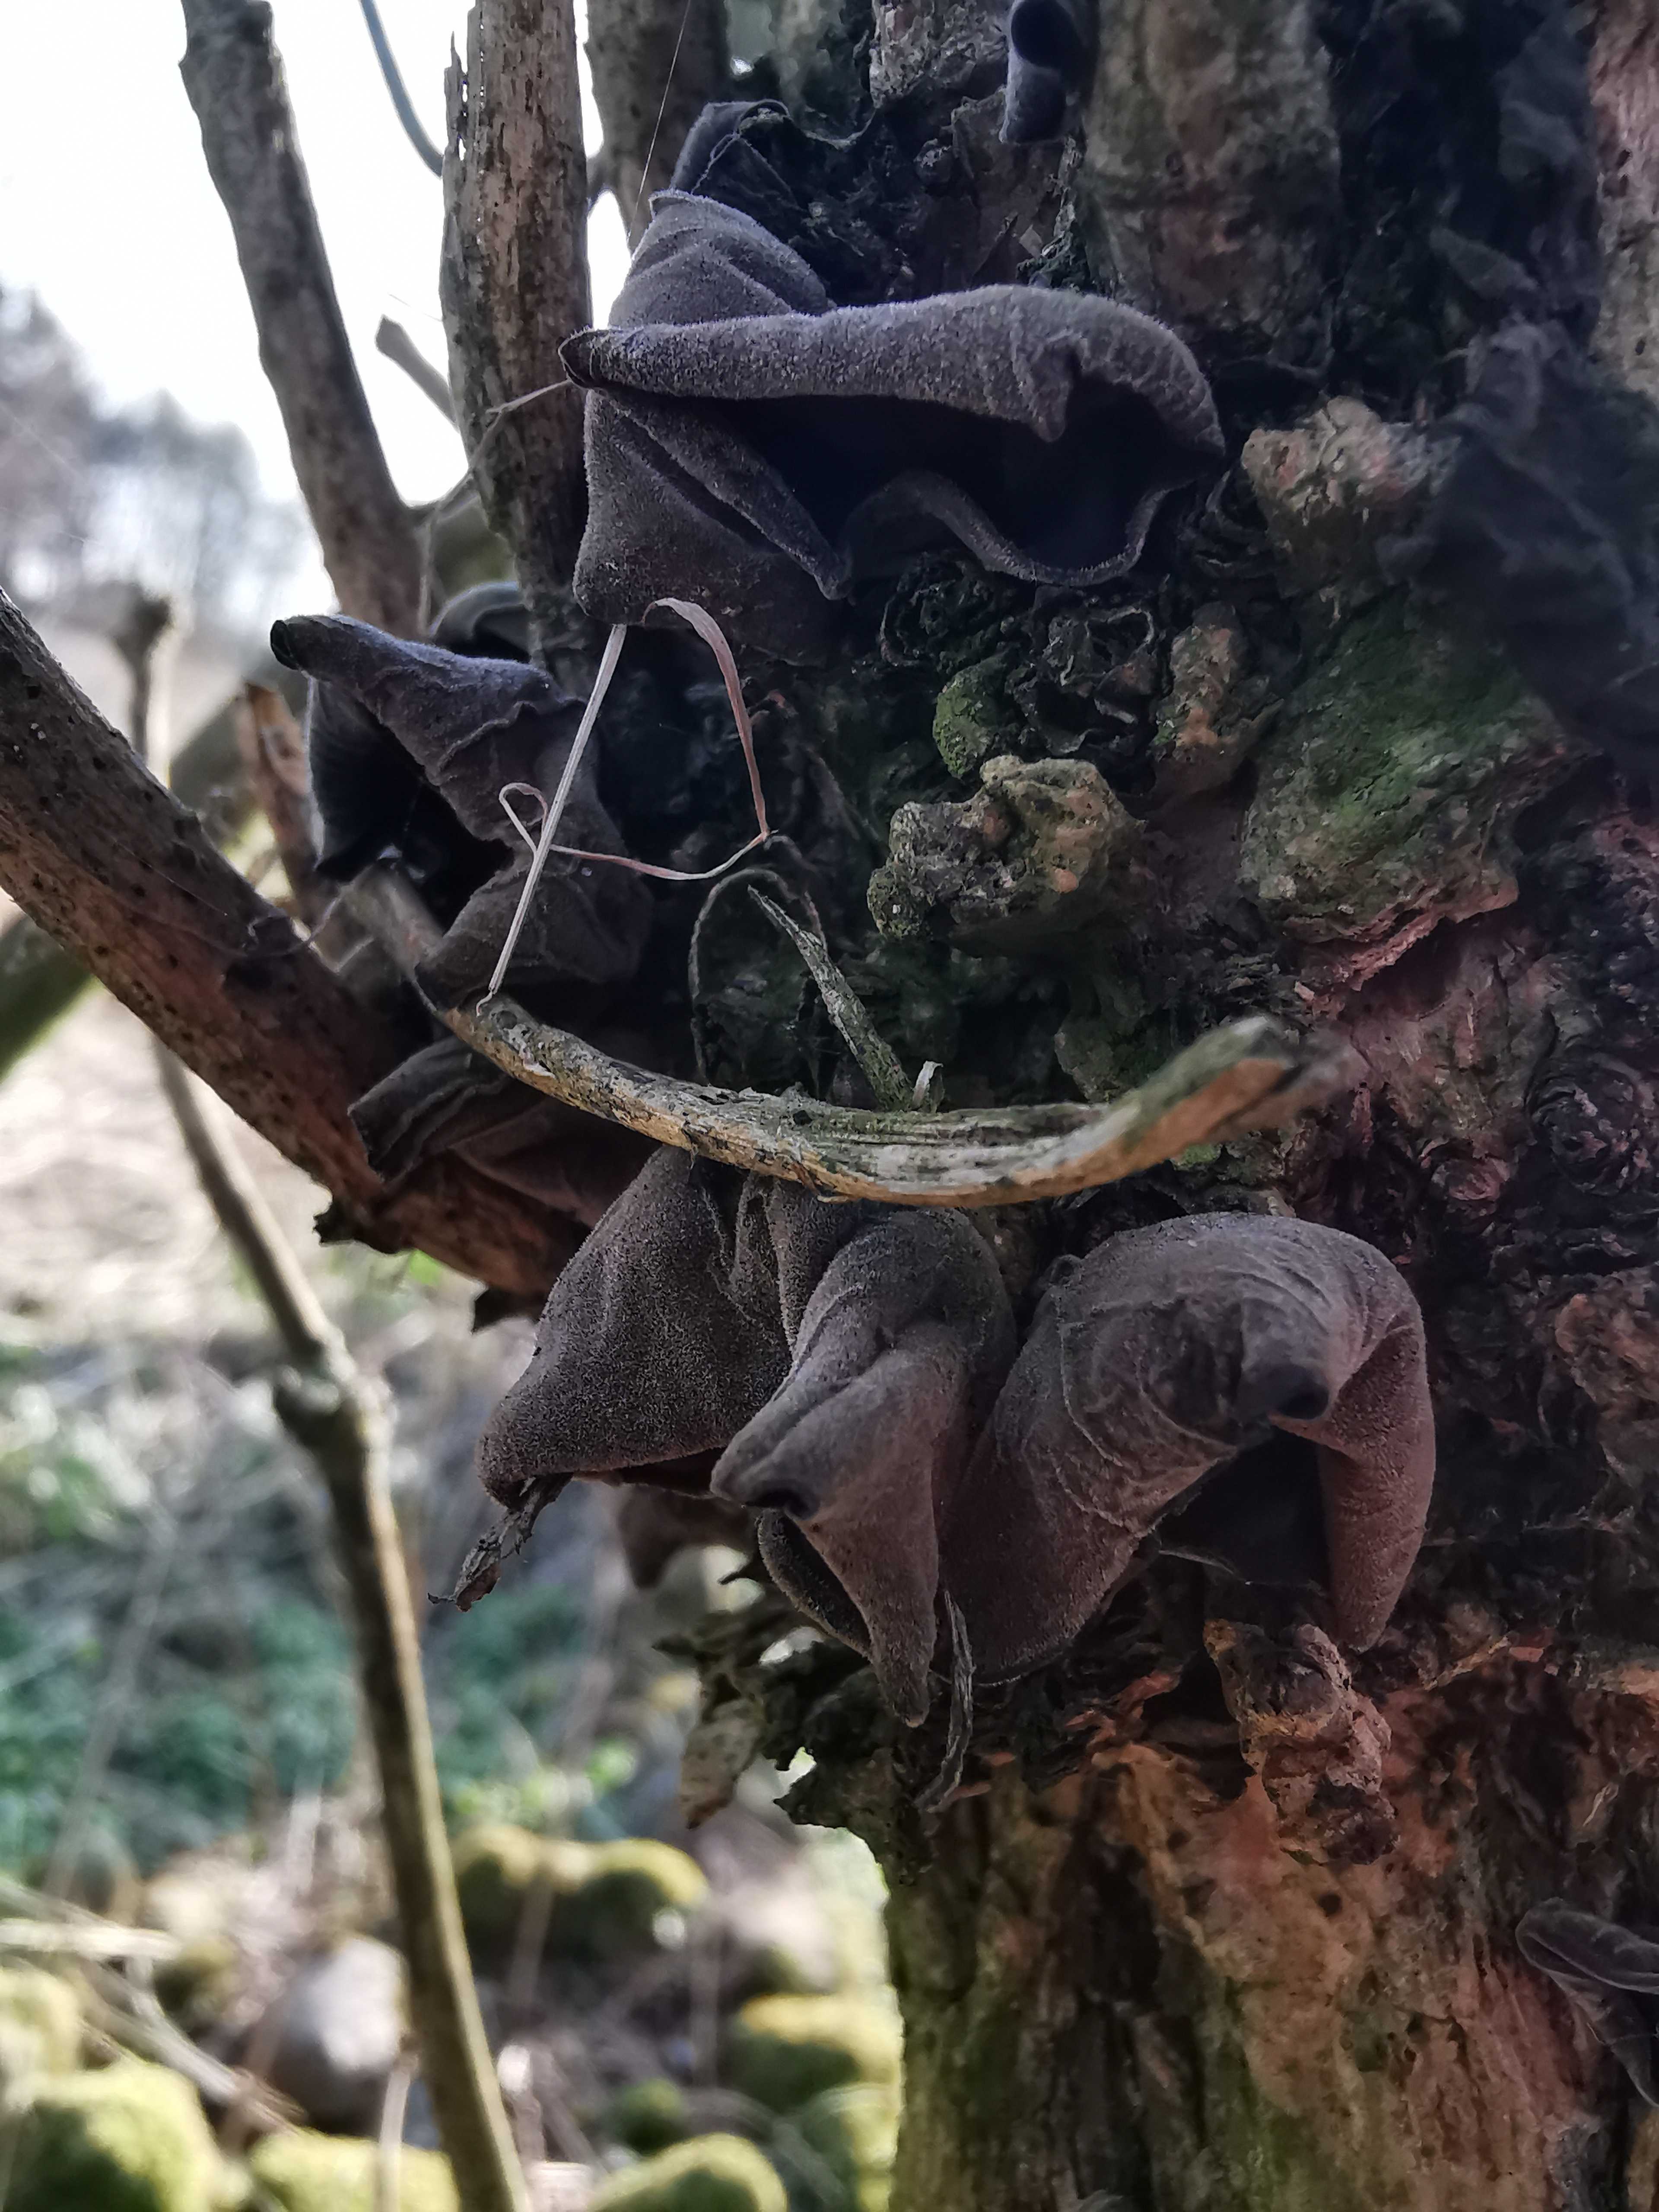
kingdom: Fungi
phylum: Basidiomycota
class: Agaricomycetes
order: Auriculariales
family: Auriculariaceae
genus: Auricularia
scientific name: Auricularia auricula-judae
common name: almindelig judasøre
